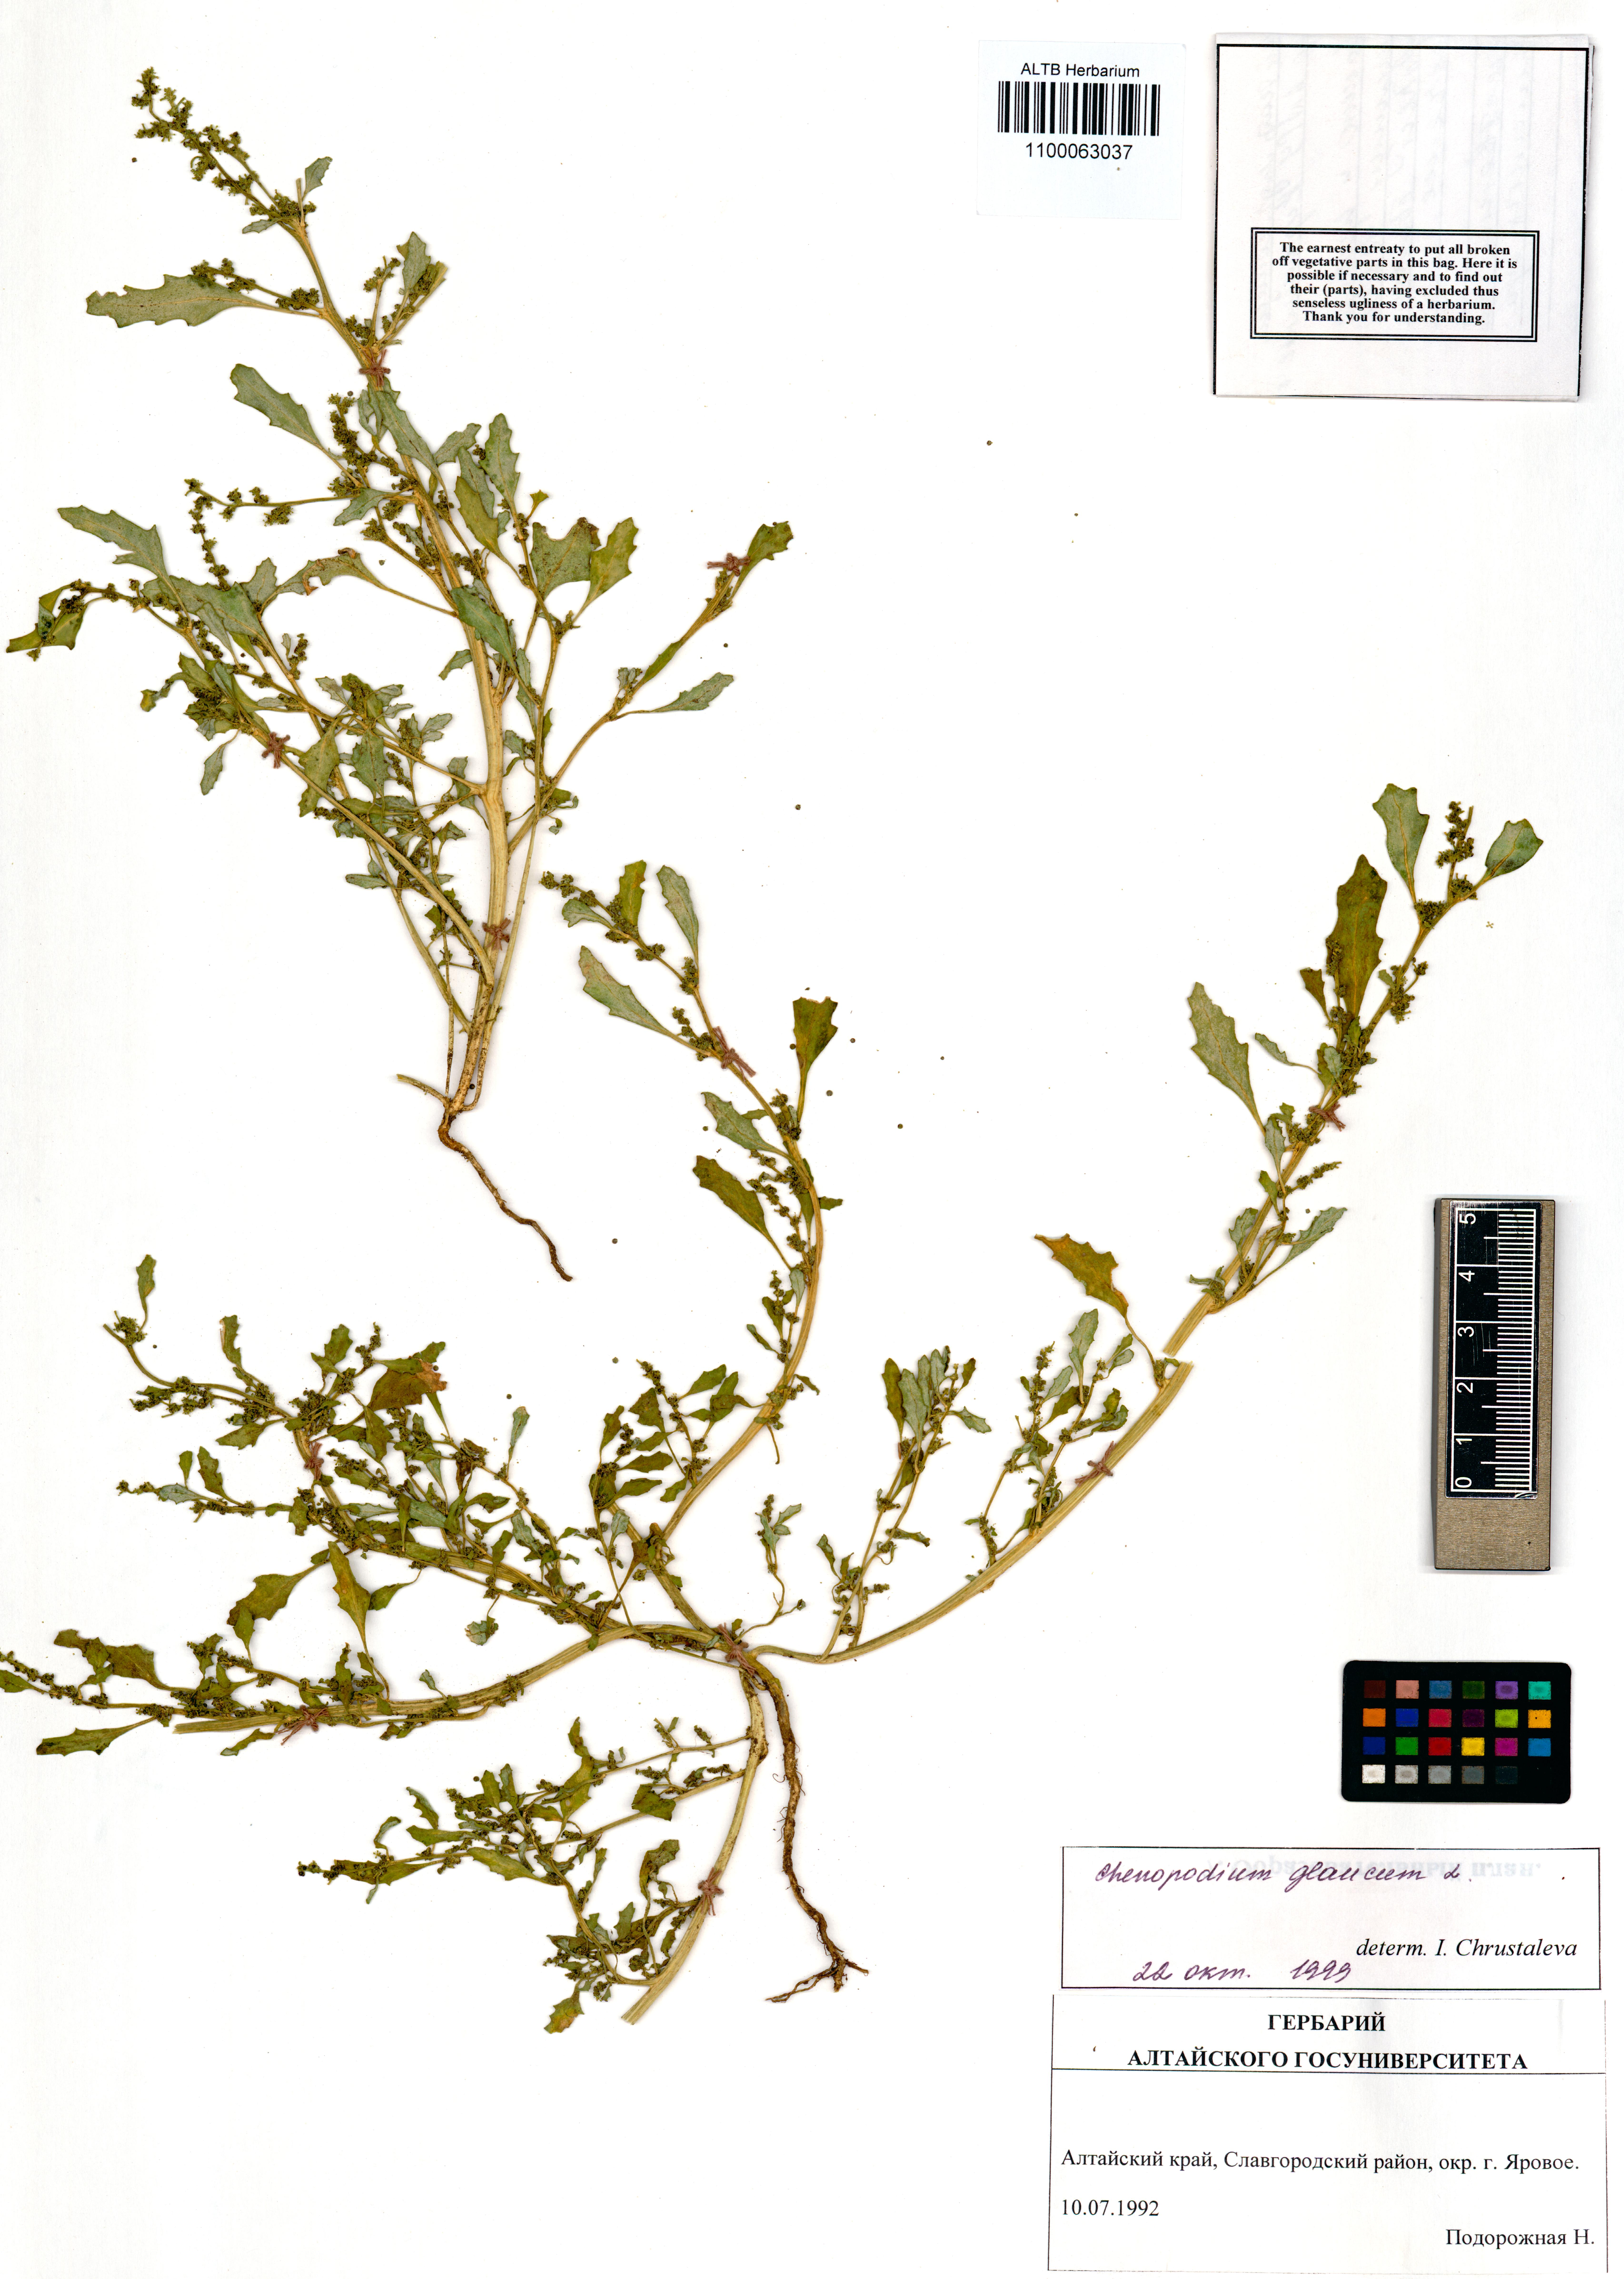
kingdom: Plantae
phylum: Tracheophyta
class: Magnoliopsida
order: Caryophyllales
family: Amaranthaceae
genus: Oxybasis
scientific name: Oxybasis glauca
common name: Glaucous goosefoot
